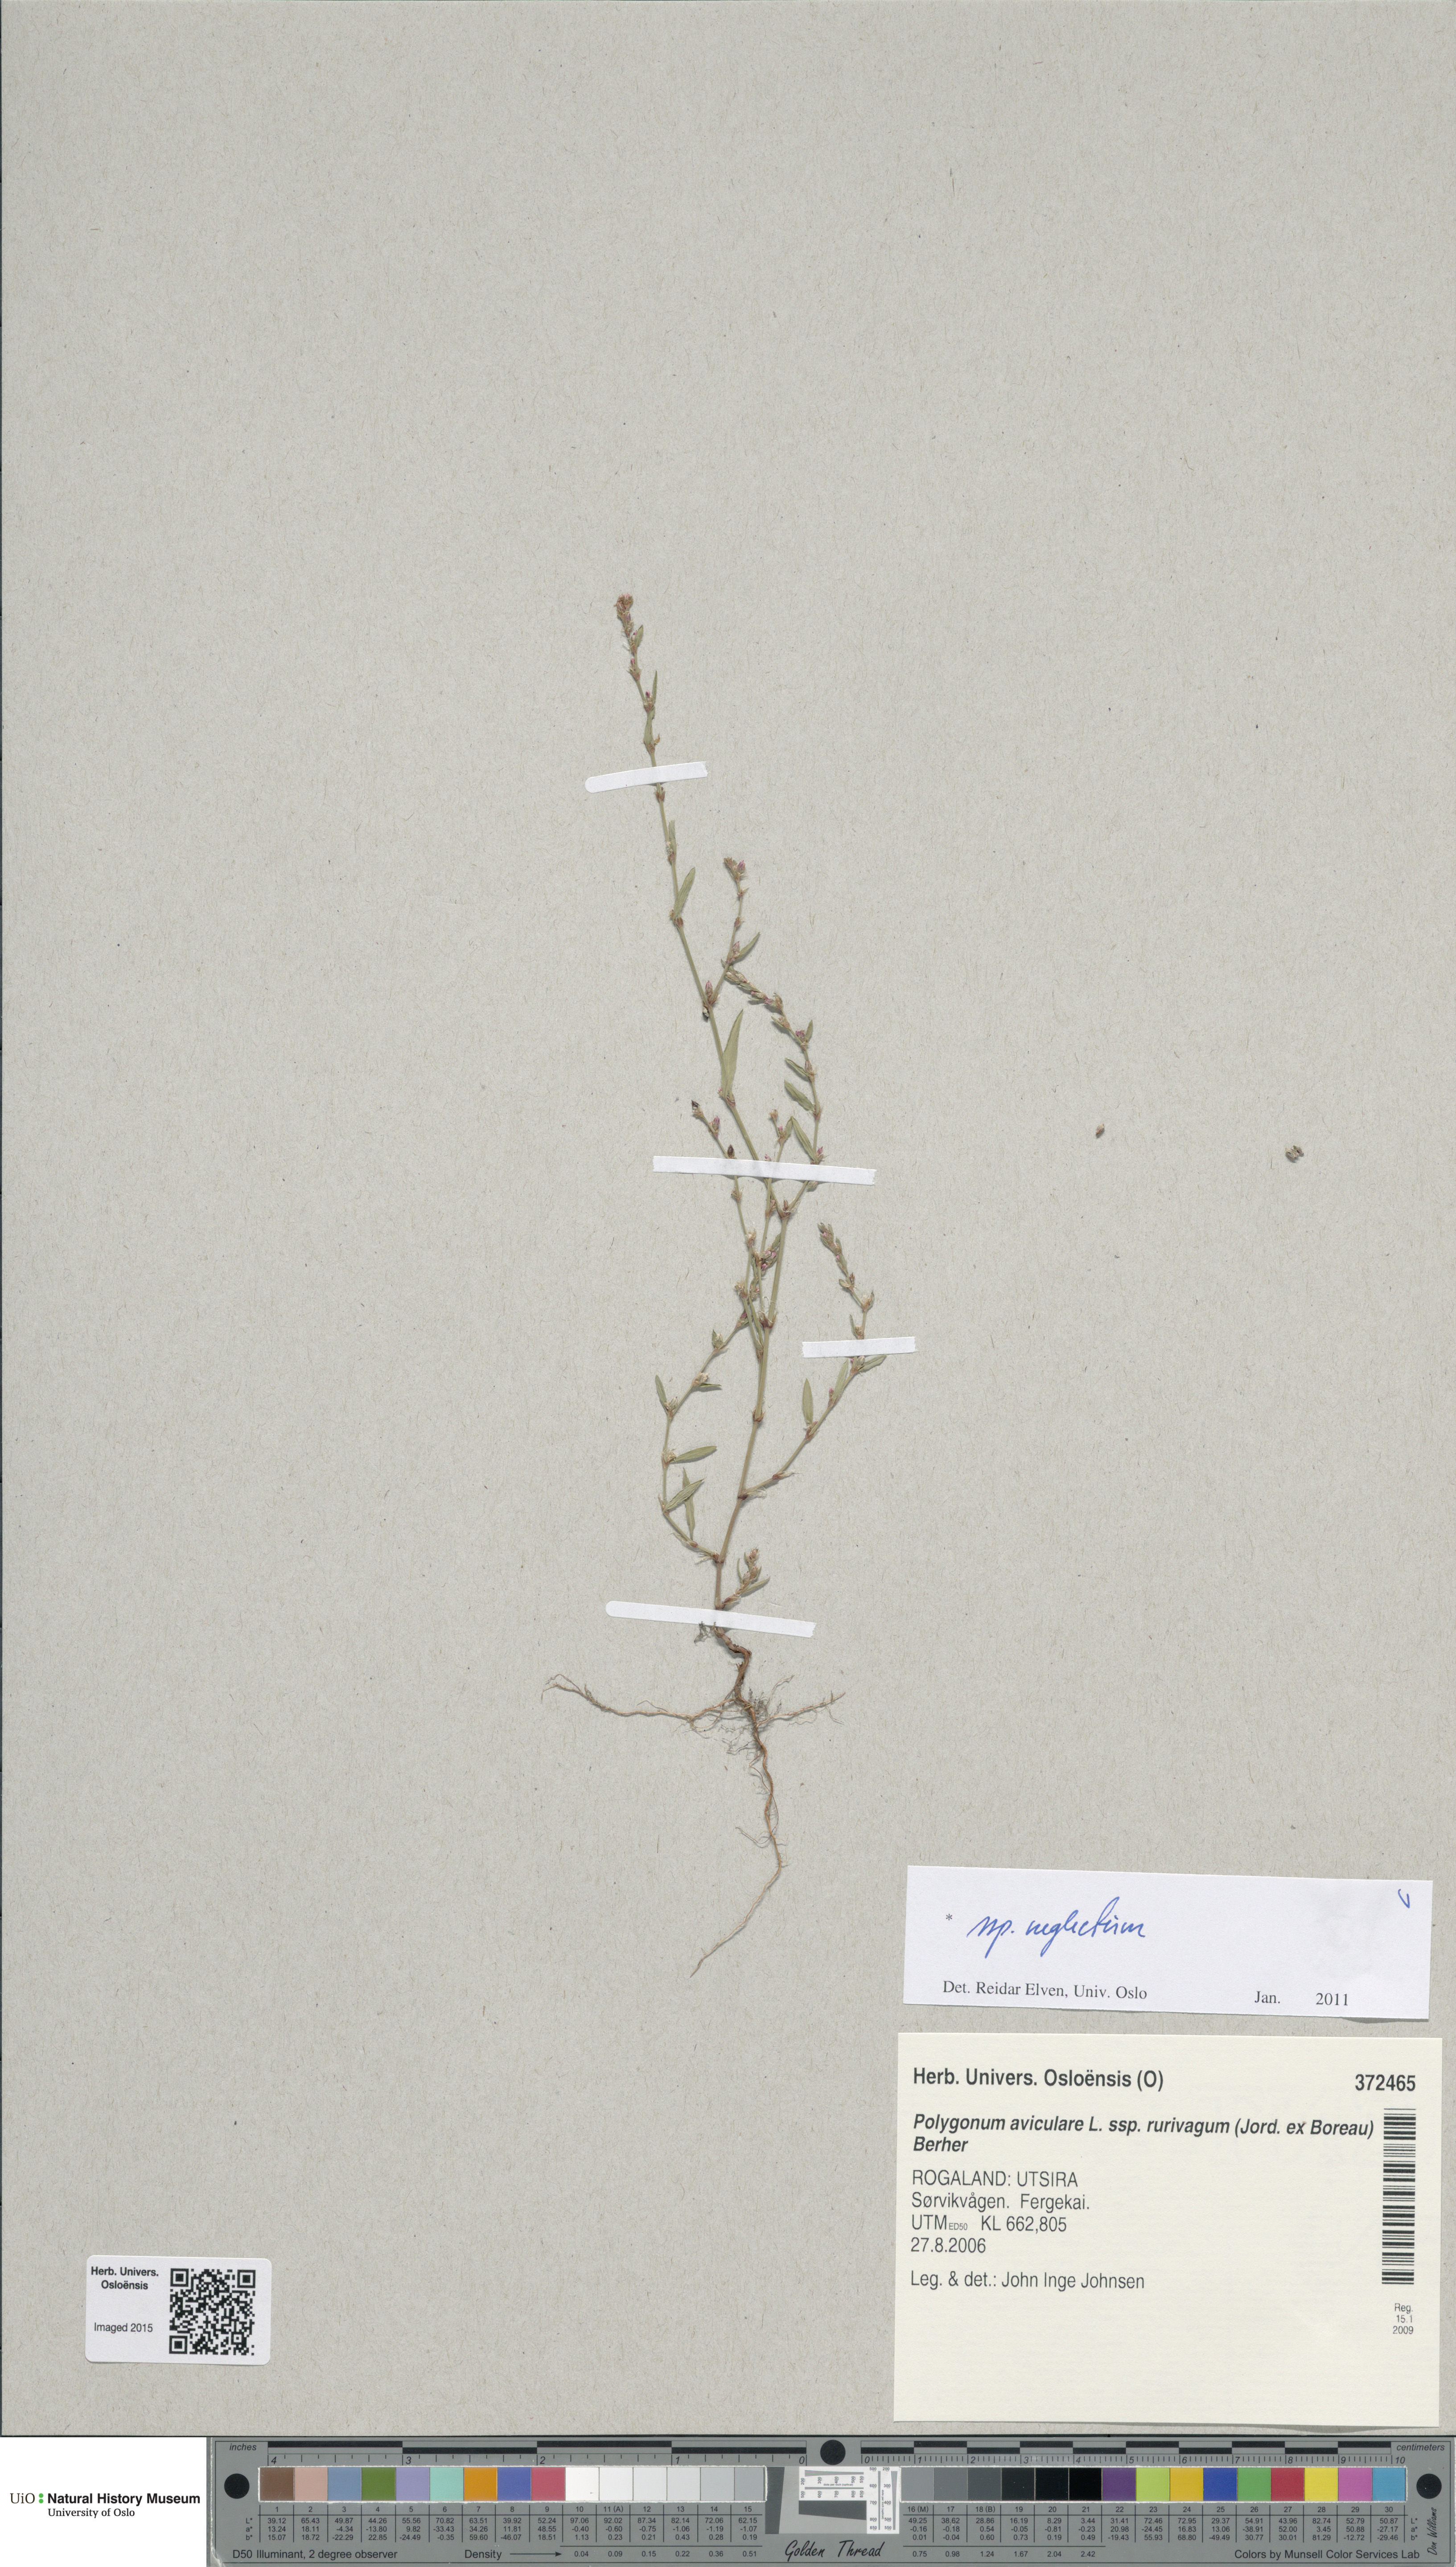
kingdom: Plantae
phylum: Tracheophyta
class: Magnoliopsida
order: Caryophyllales
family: Polygonaceae
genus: Polygonum
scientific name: Polygonum aviculare
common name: Prostrate knotweed
